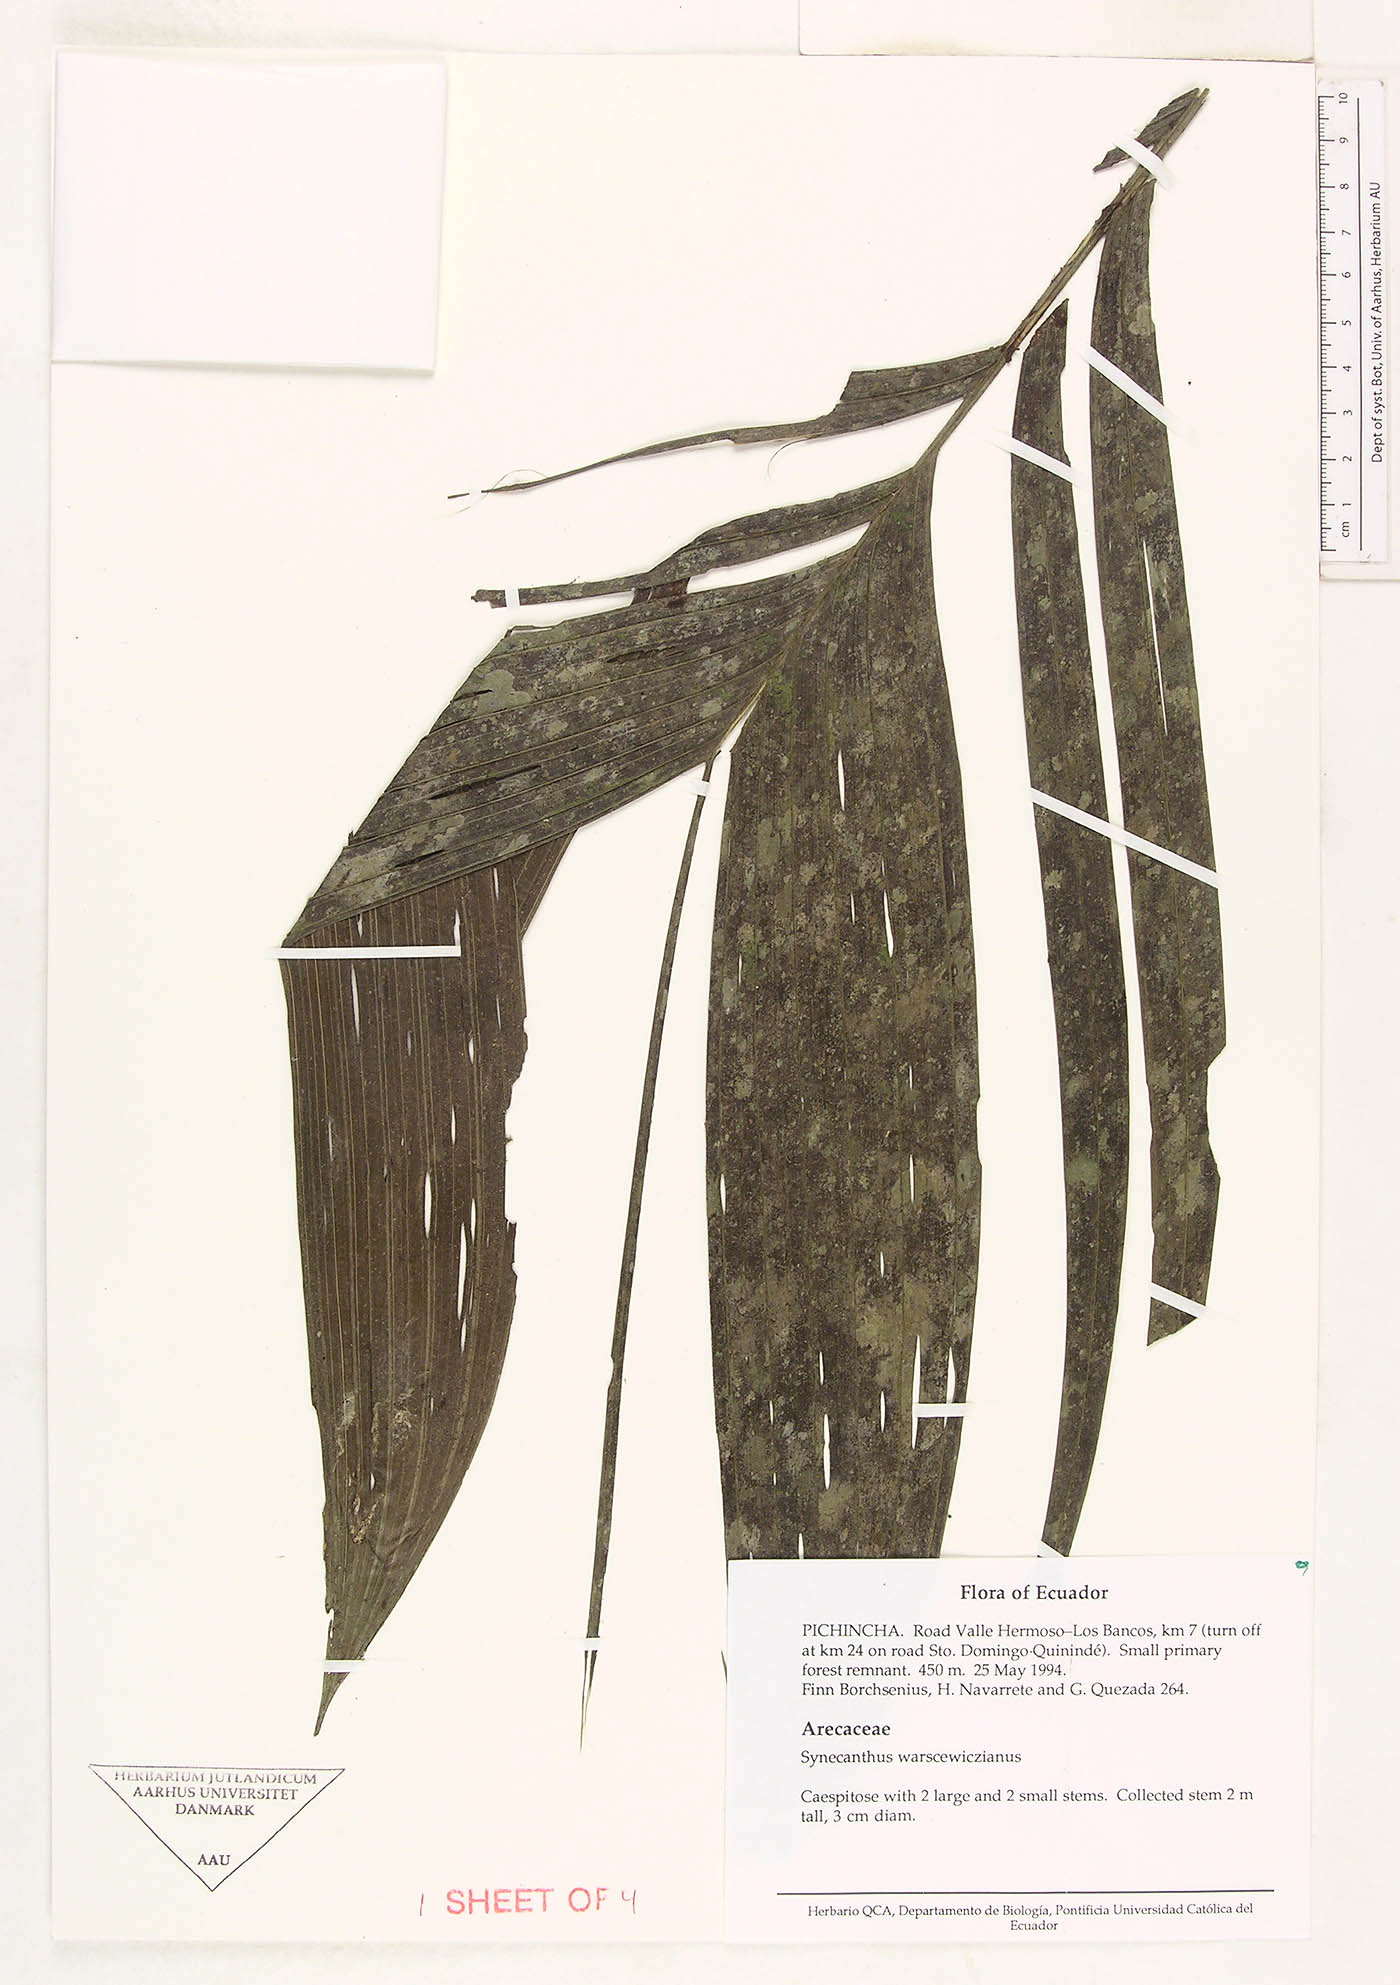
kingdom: Plantae
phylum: Tracheophyta
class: Liliopsida
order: Arecales
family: Arecaceae
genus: Synechanthus
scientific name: Synechanthus warscewiczianus
